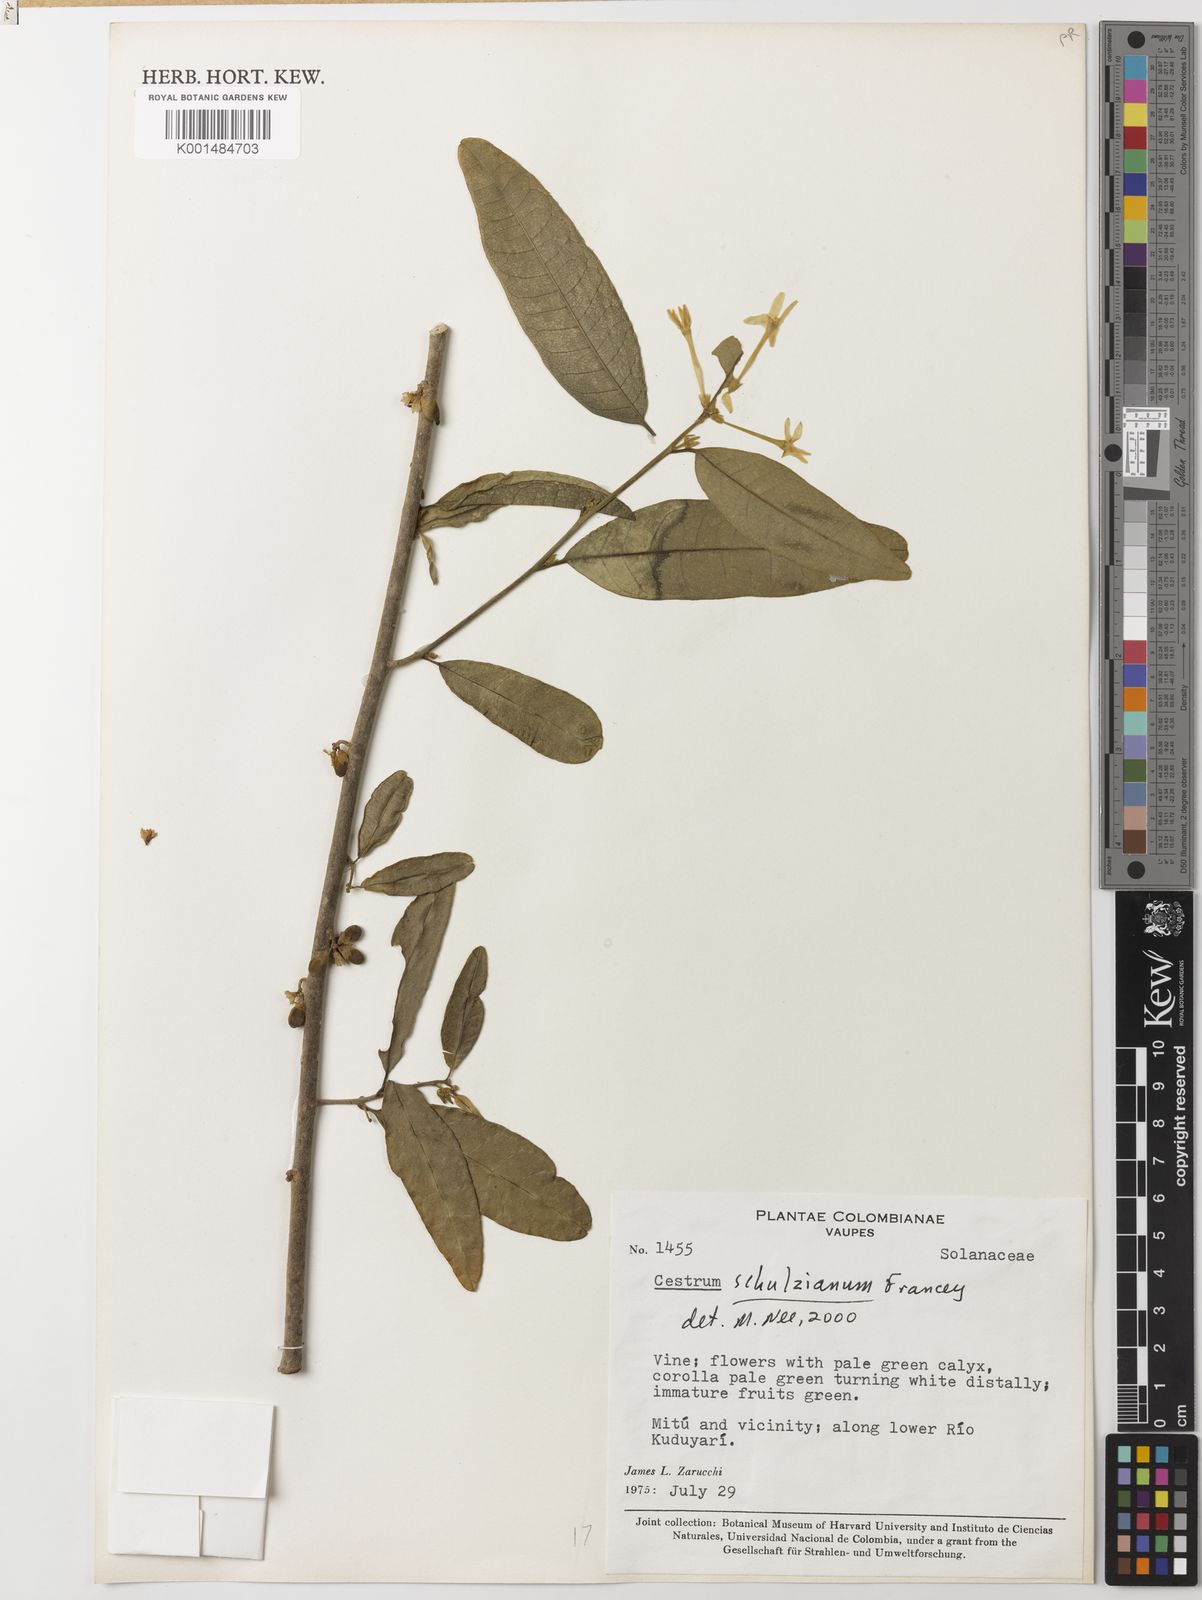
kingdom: Plantae
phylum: Tracheophyta
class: Magnoliopsida
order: Solanales
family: Solanaceae
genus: Cestrum
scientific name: Cestrum schulzianum
